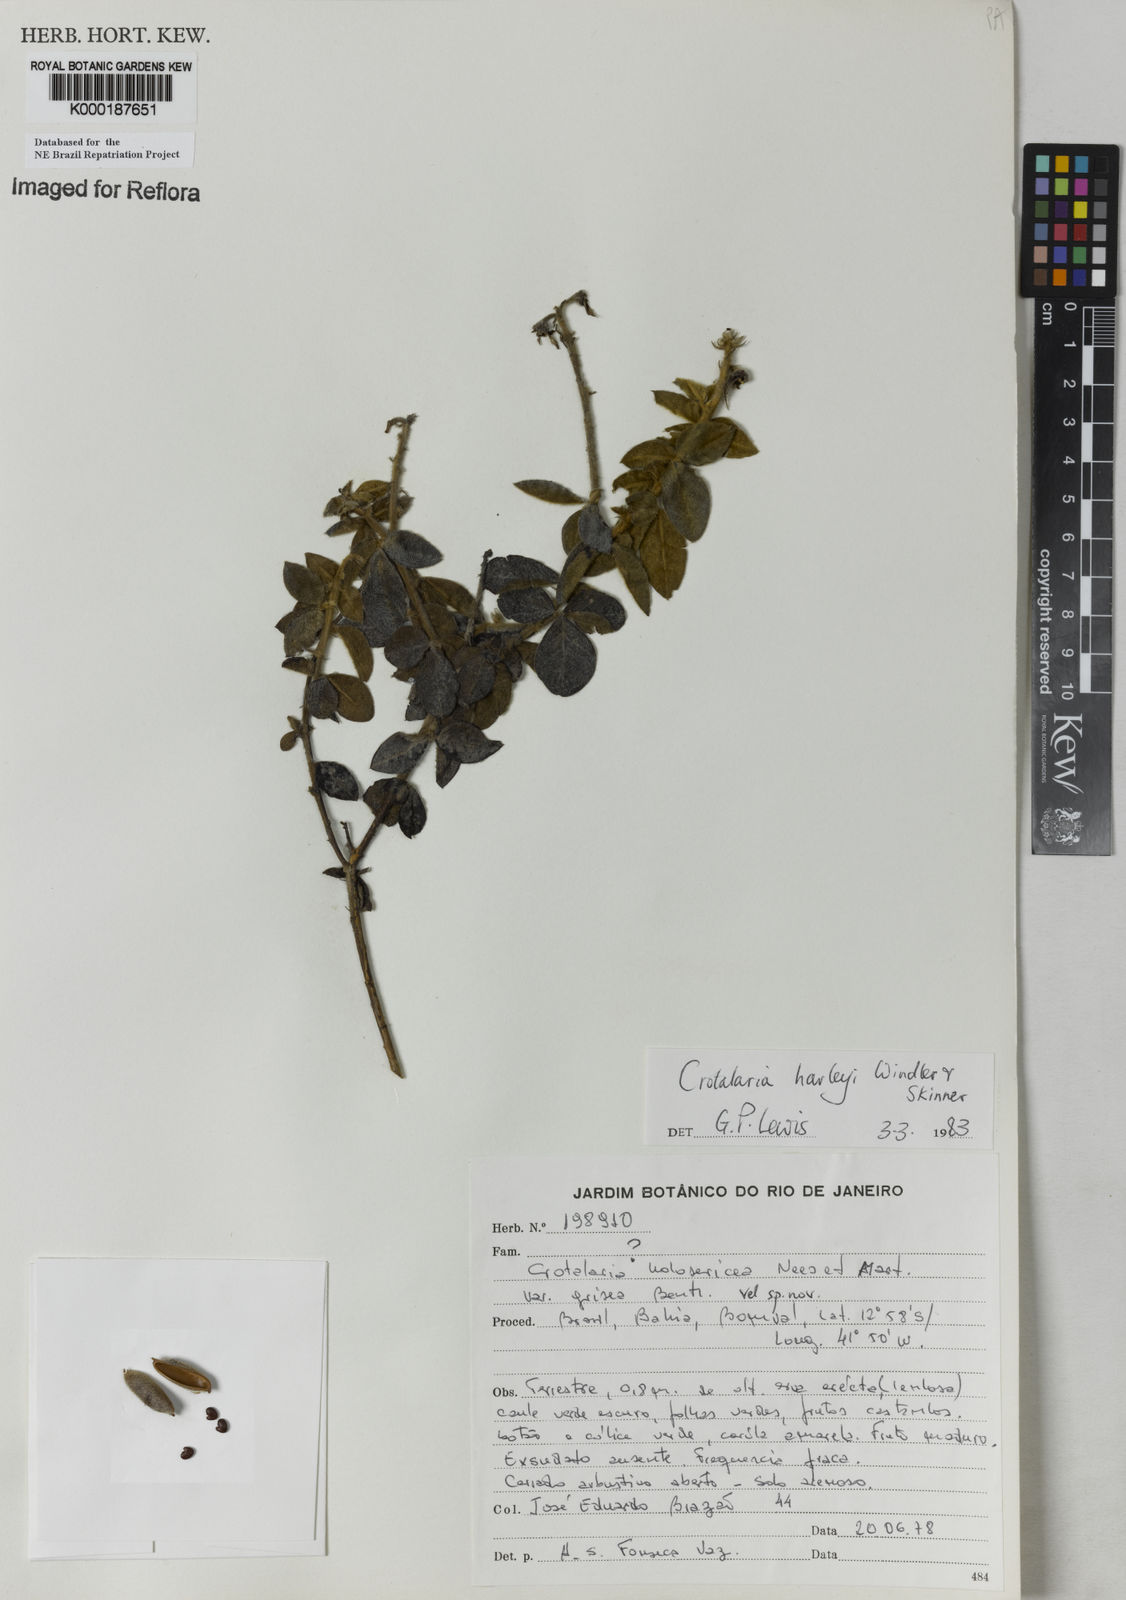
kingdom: Plantae
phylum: Tracheophyta
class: Magnoliopsida
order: Fabales
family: Fabaceae
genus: Crotalaria
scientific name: Crotalaria harleyi
